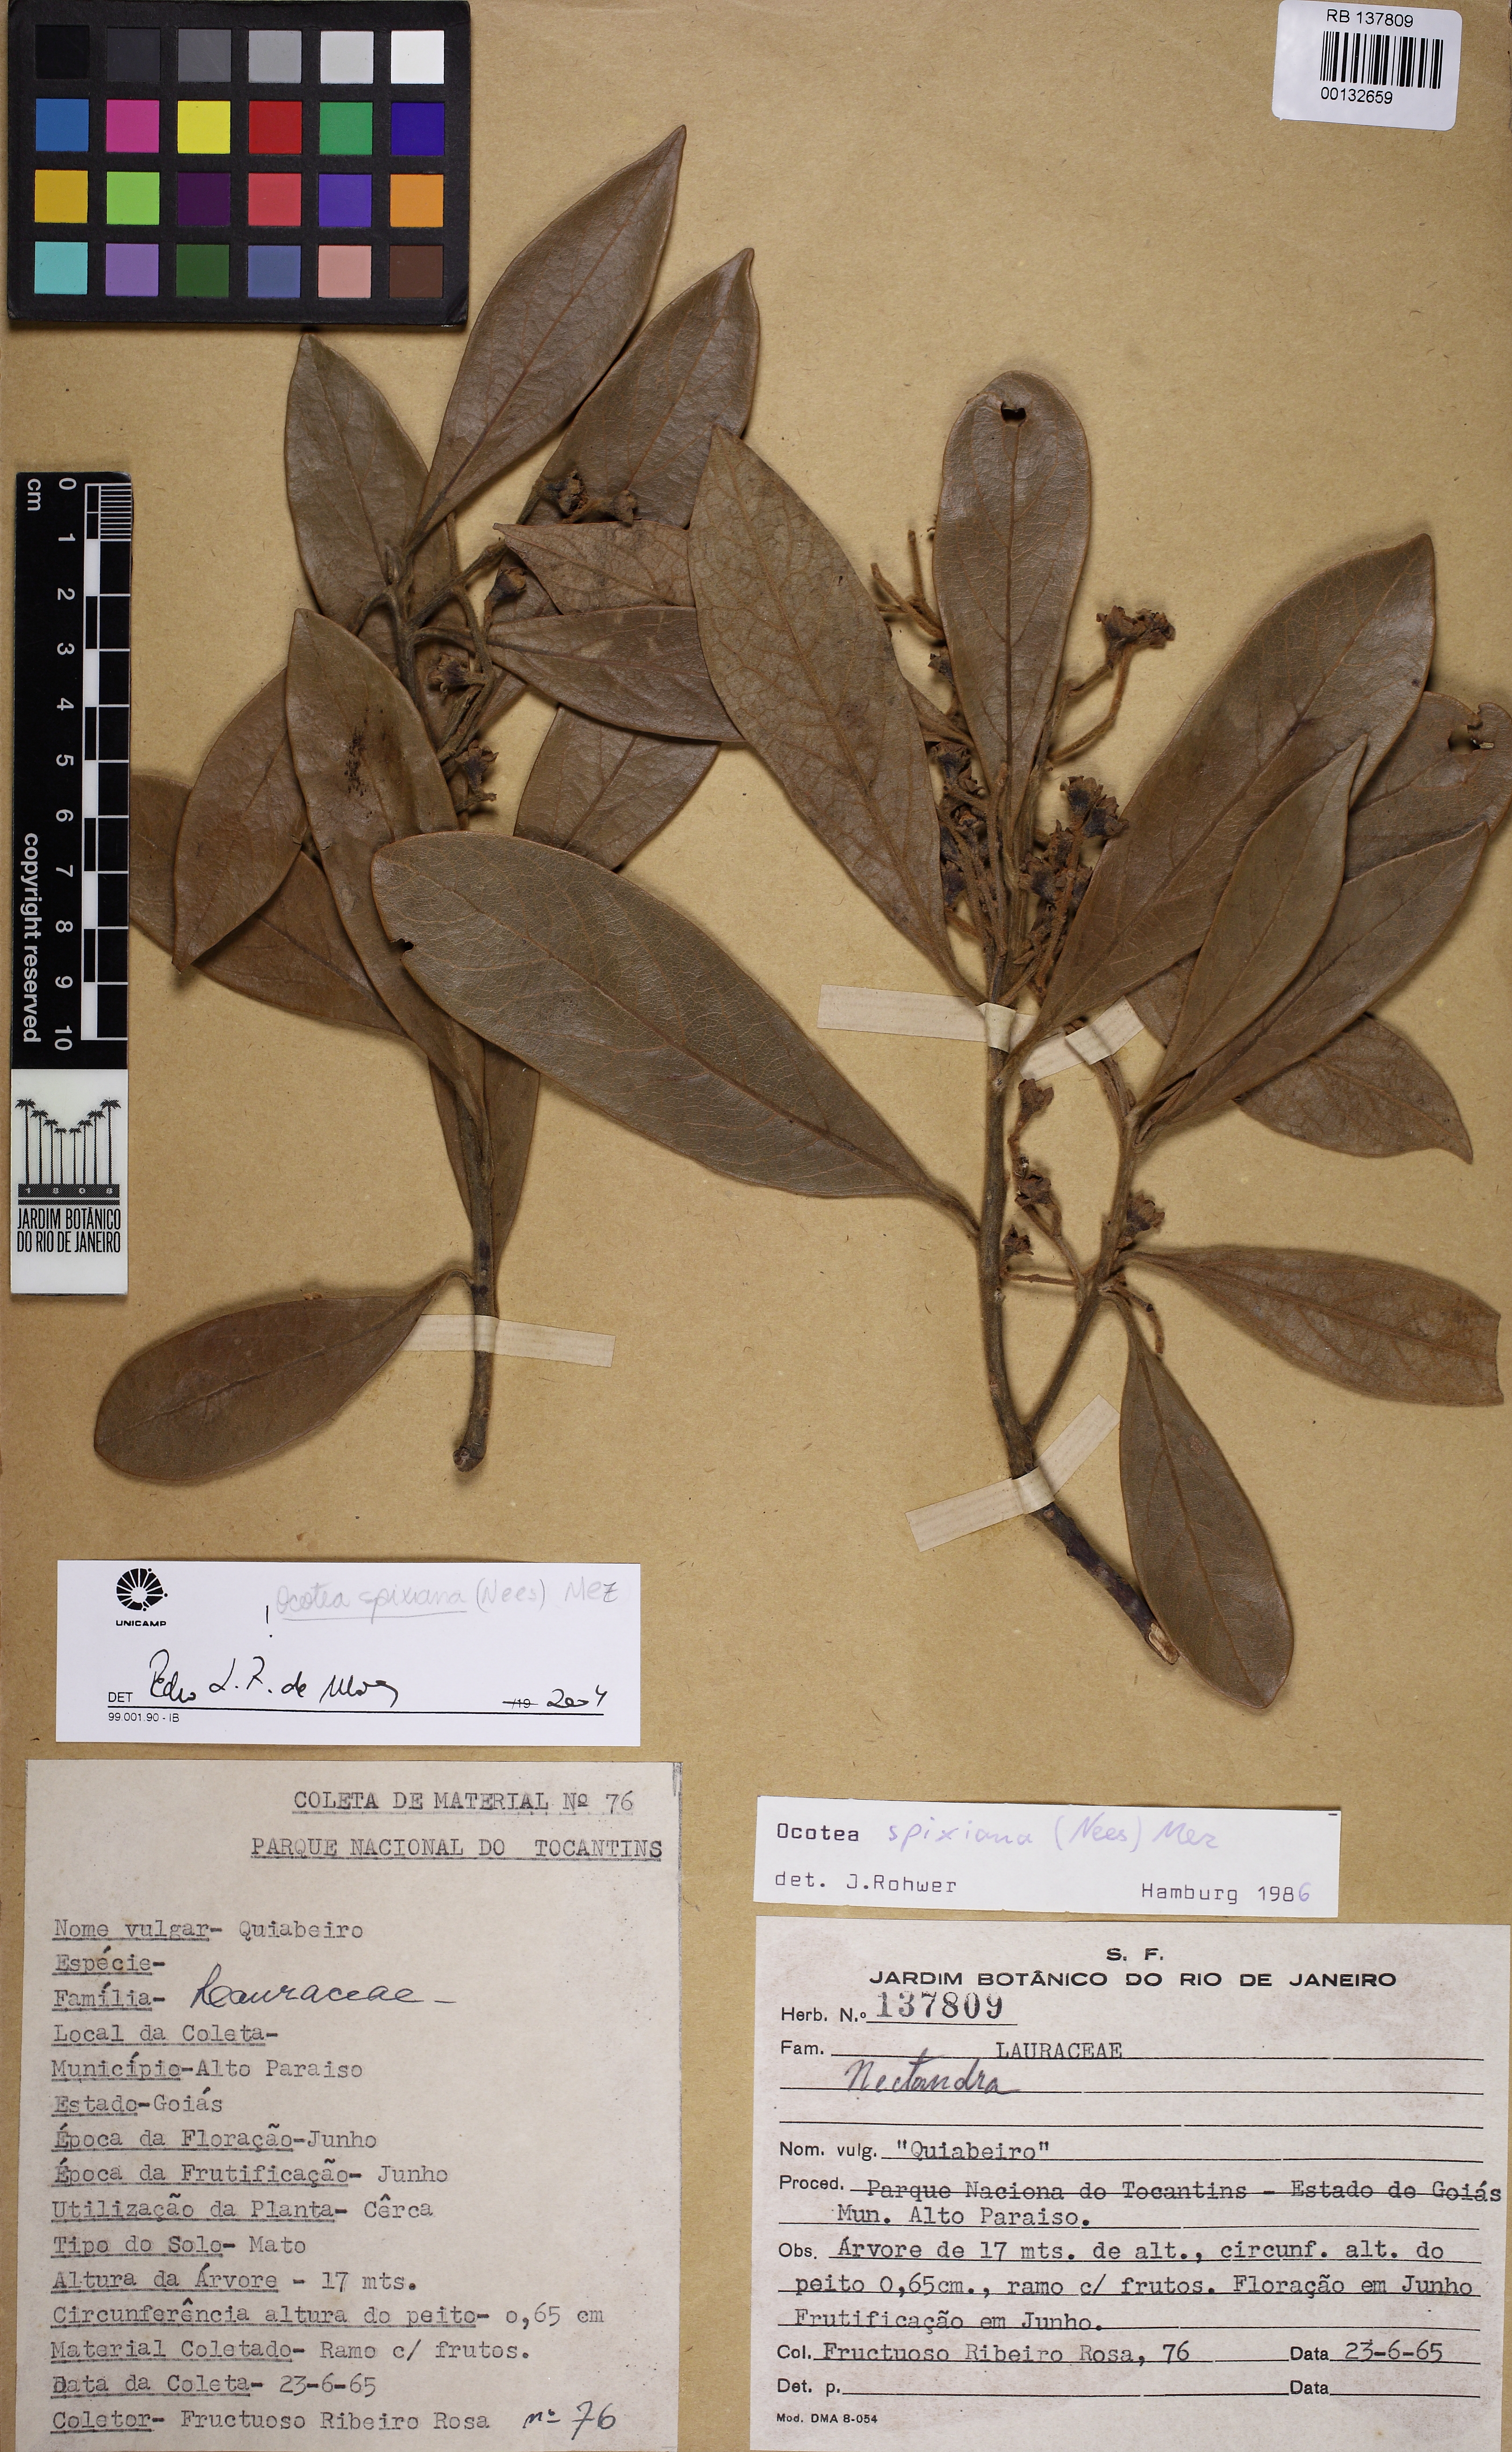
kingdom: Plantae
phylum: Tracheophyta
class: Magnoliopsida
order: Laurales
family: Lauraceae
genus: Ocotea
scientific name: Ocotea spixiana
